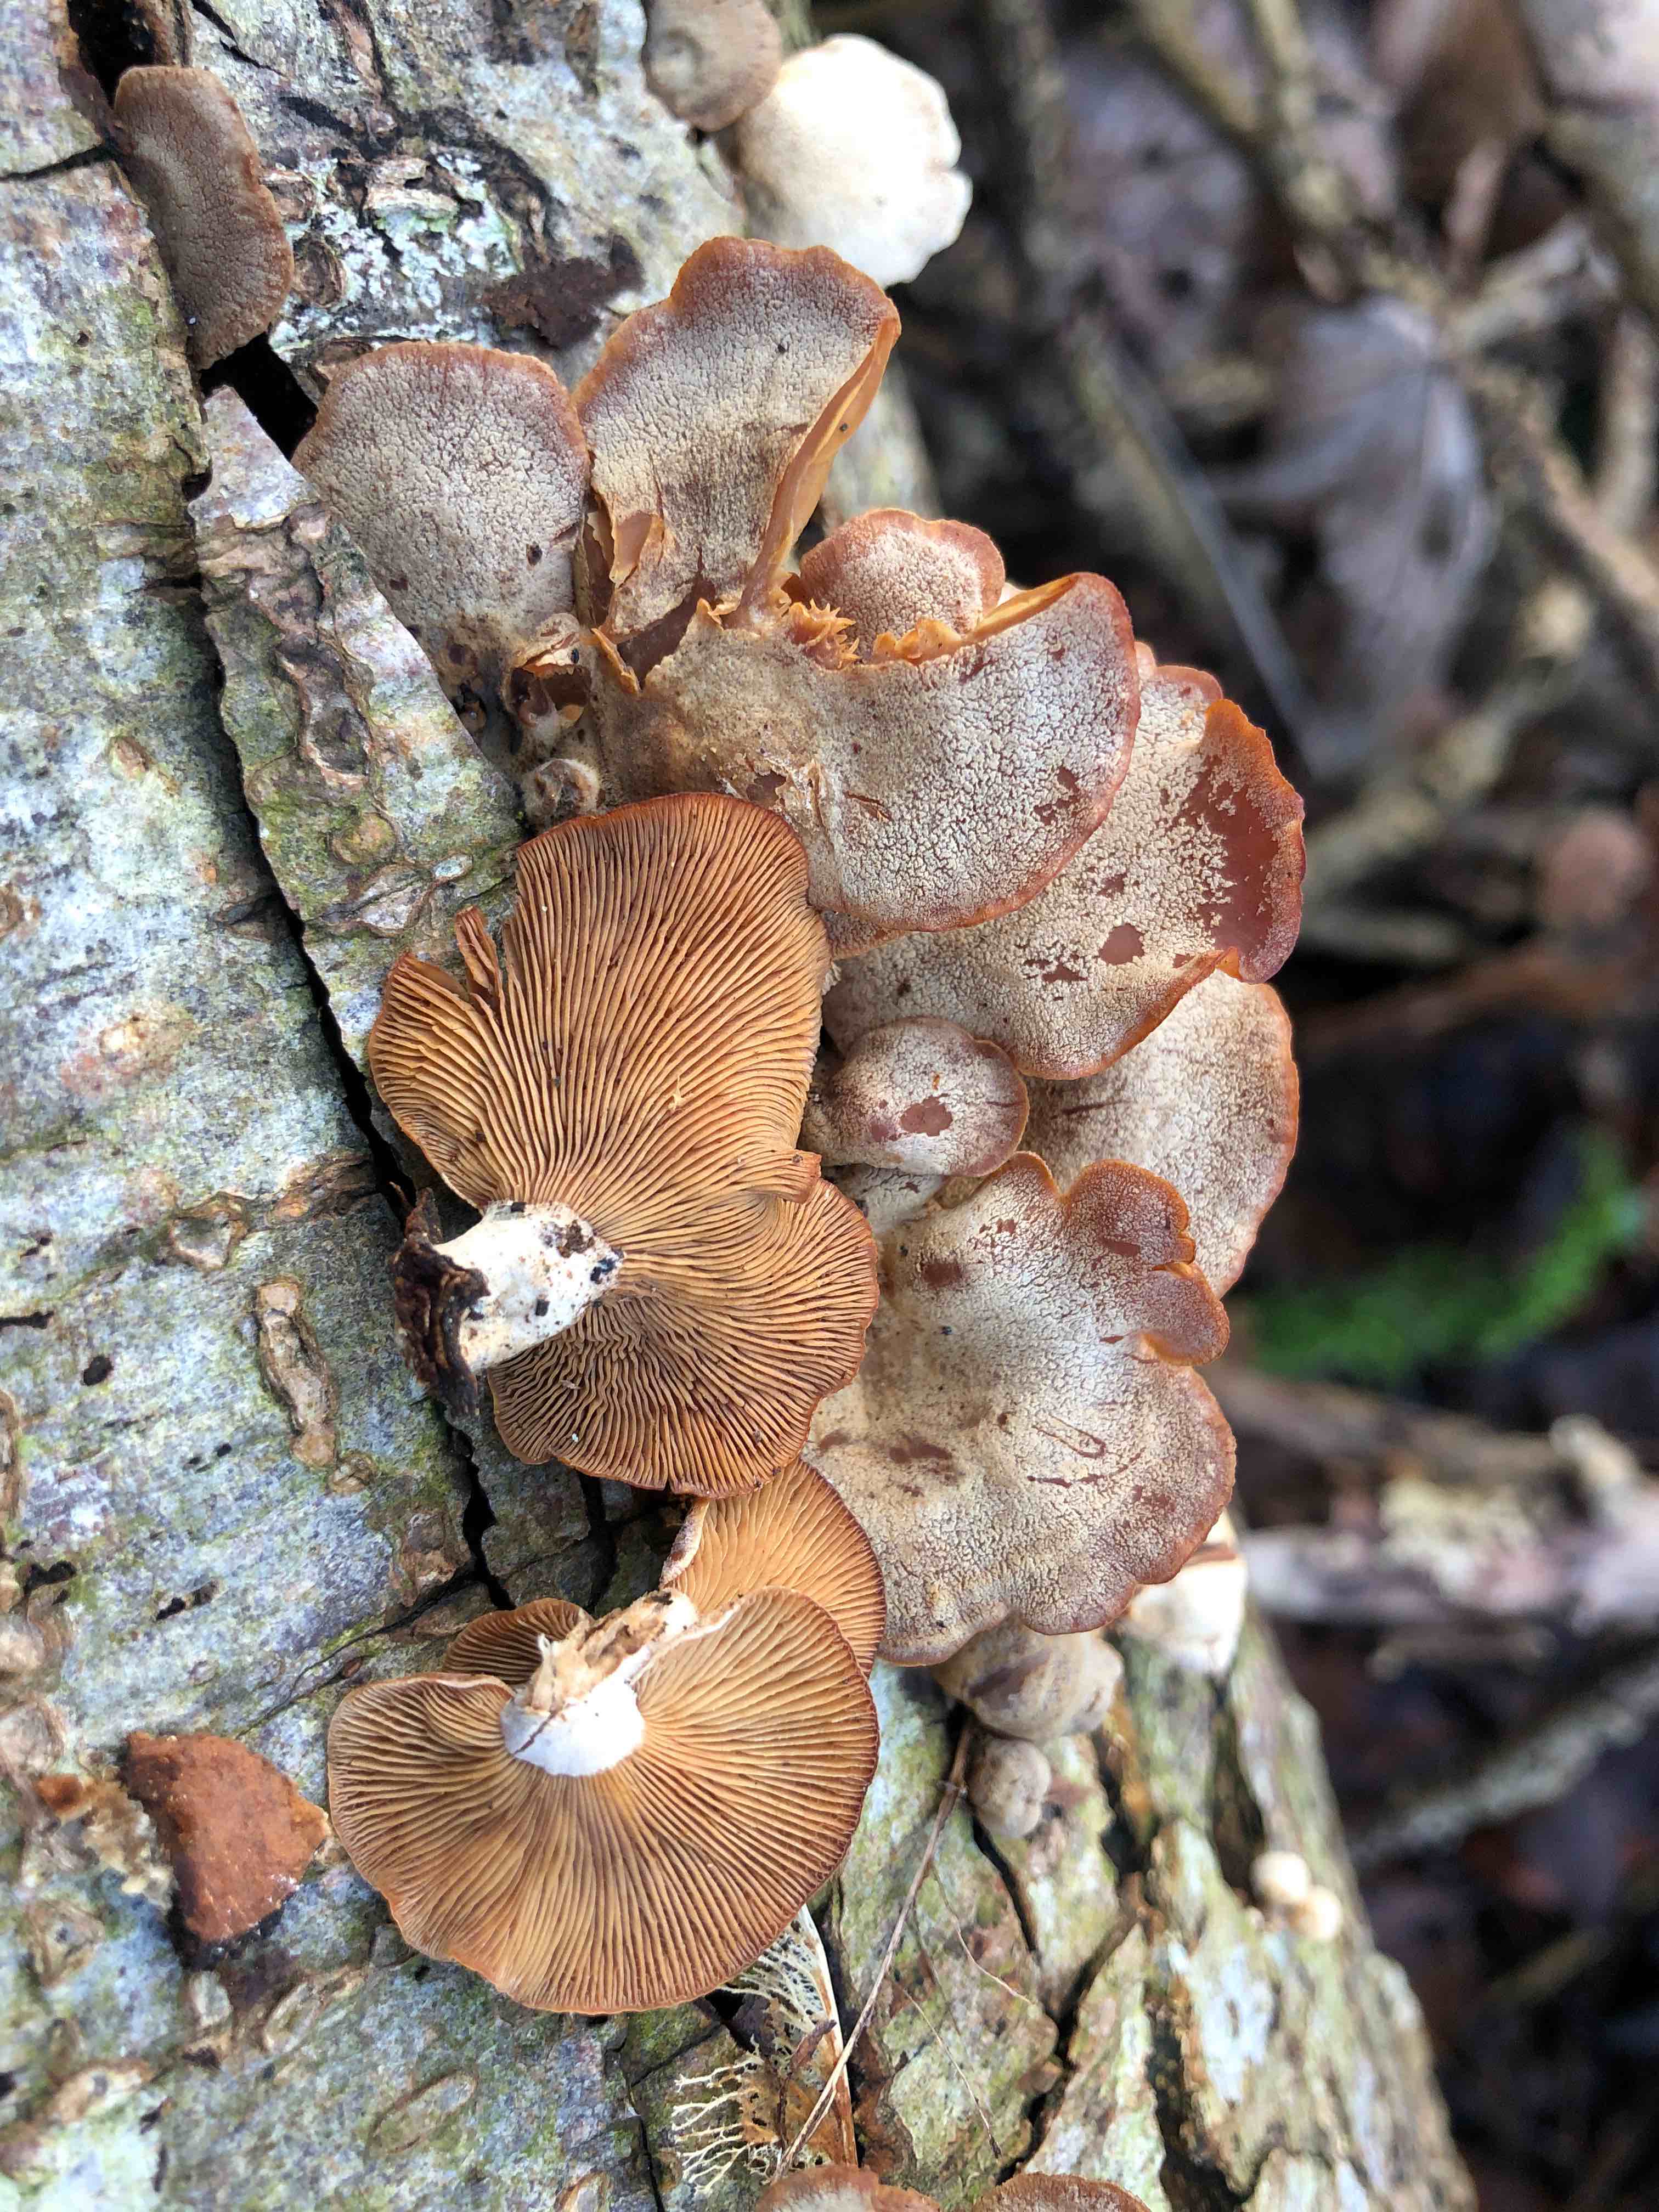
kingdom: Fungi
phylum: Basidiomycota
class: Agaricomycetes
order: Agaricales
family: Mycenaceae
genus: Panellus
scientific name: Panellus stipticus
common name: kliddet epaulethat
